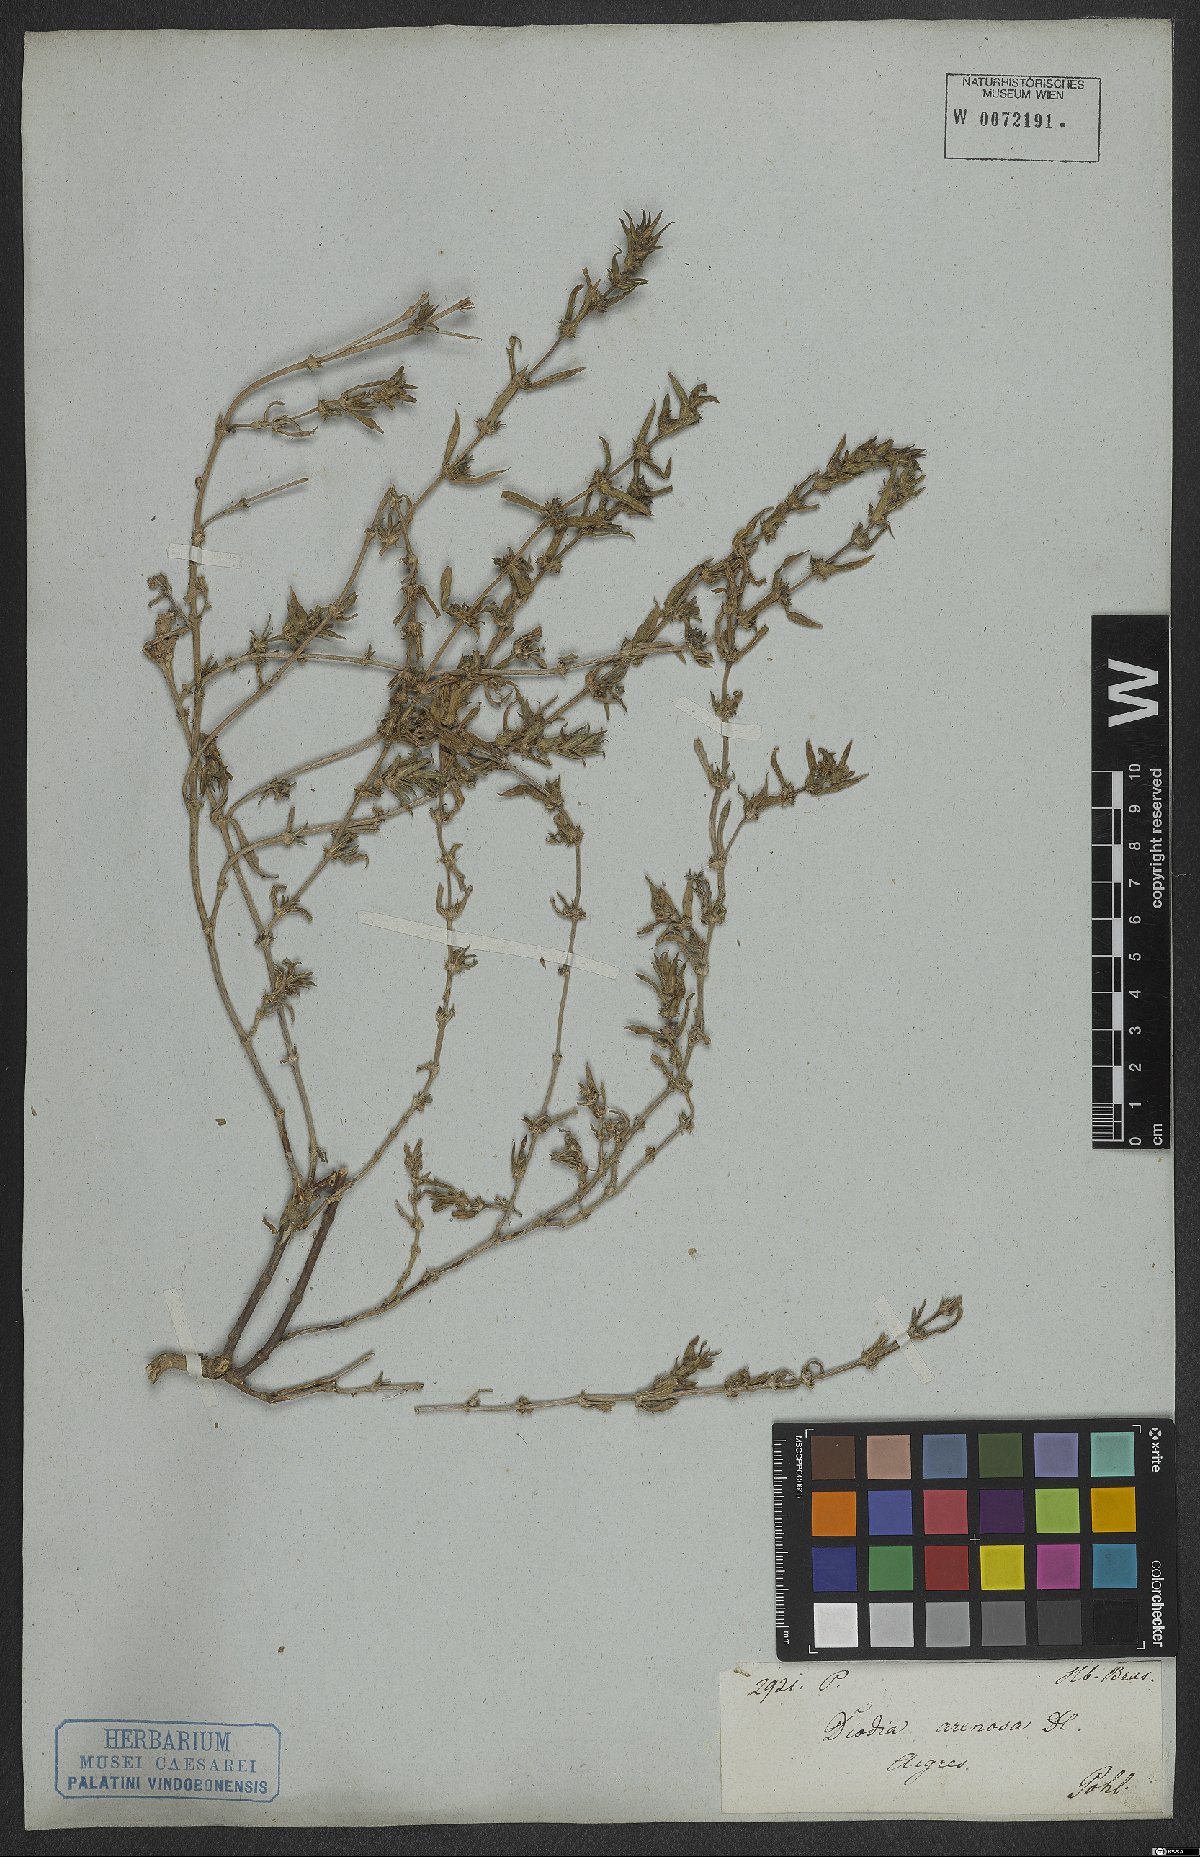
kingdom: Plantae
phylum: Tracheophyta
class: Magnoliopsida
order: Gentianales
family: Rubiaceae
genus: Hexasepalum
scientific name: Hexasepalum apiculatum
